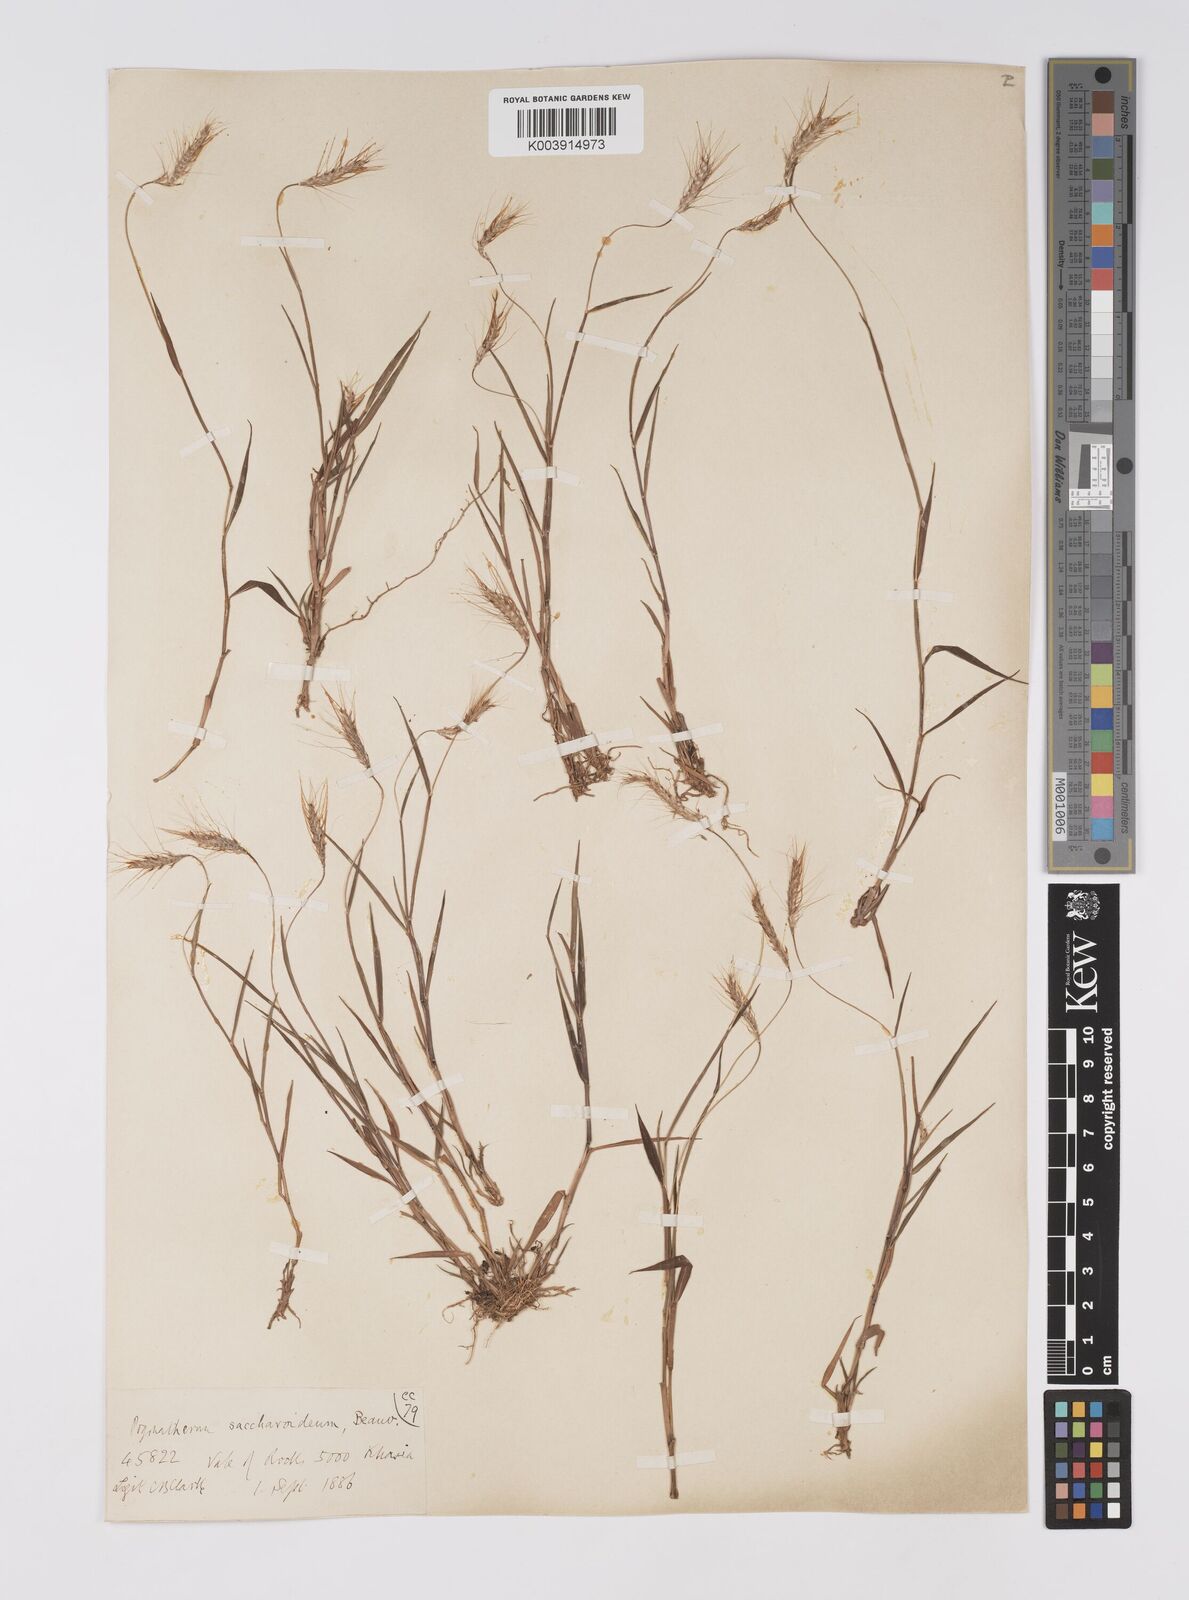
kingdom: Plantae
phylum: Tracheophyta
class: Liliopsida
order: Poales
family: Poaceae
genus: Pogonatherum
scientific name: Pogonatherum paniceum
